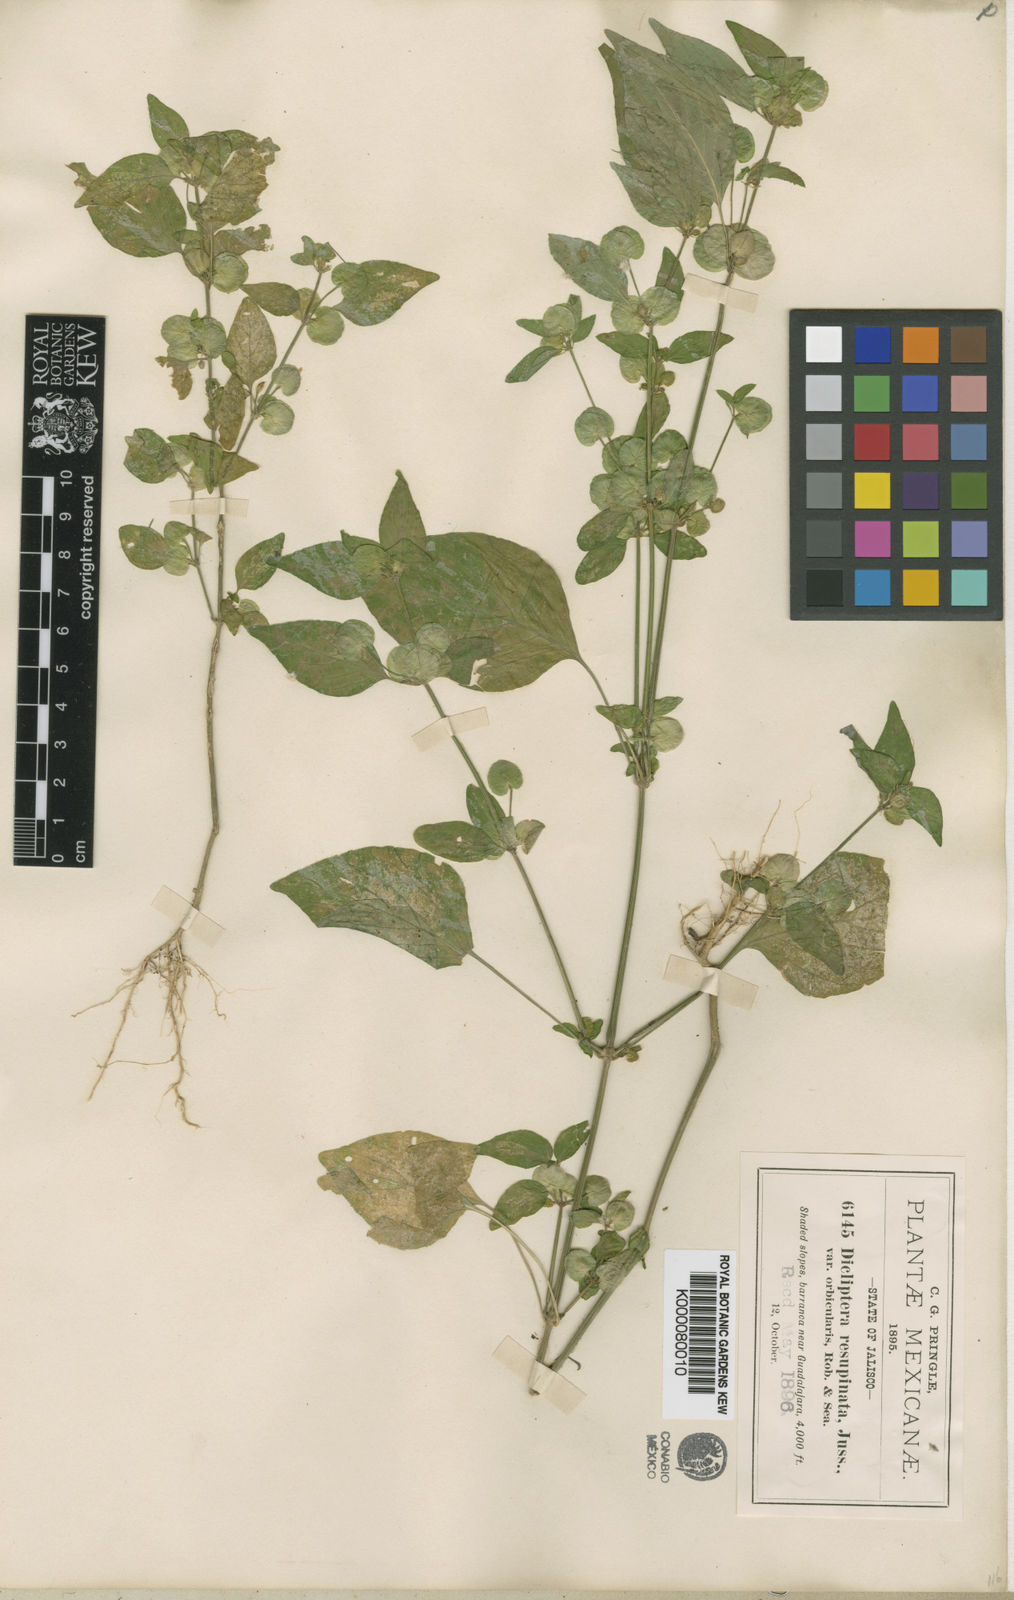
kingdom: Plantae
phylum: Tracheophyta
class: Magnoliopsida
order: Lamiales
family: Acanthaceae
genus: Dicliptera
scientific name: Dicliptera resupinata
